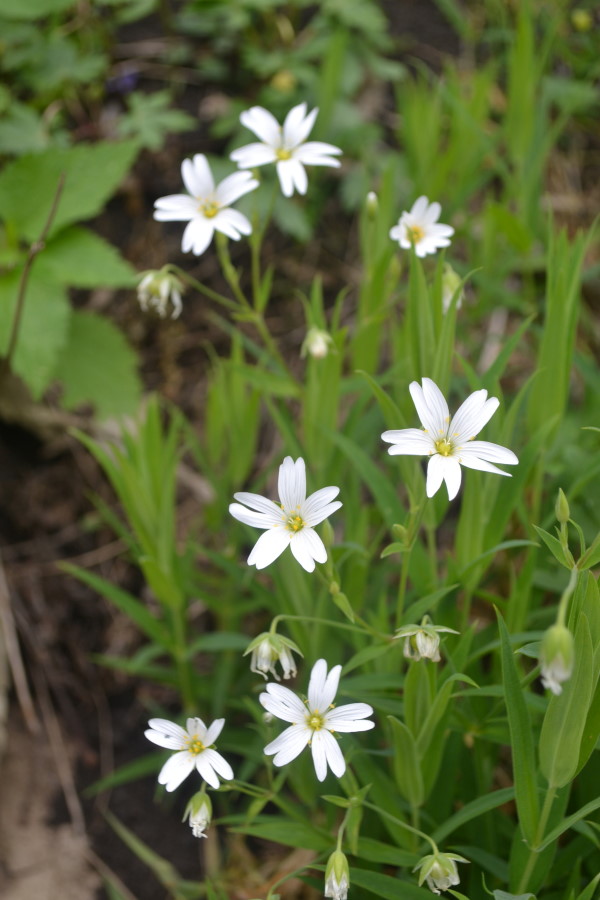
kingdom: Plantae
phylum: Tracheophyta
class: Magnoliopsida
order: Caryophyllales
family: Caryophyllaceae
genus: Rabelera
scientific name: Rabelera holostea
